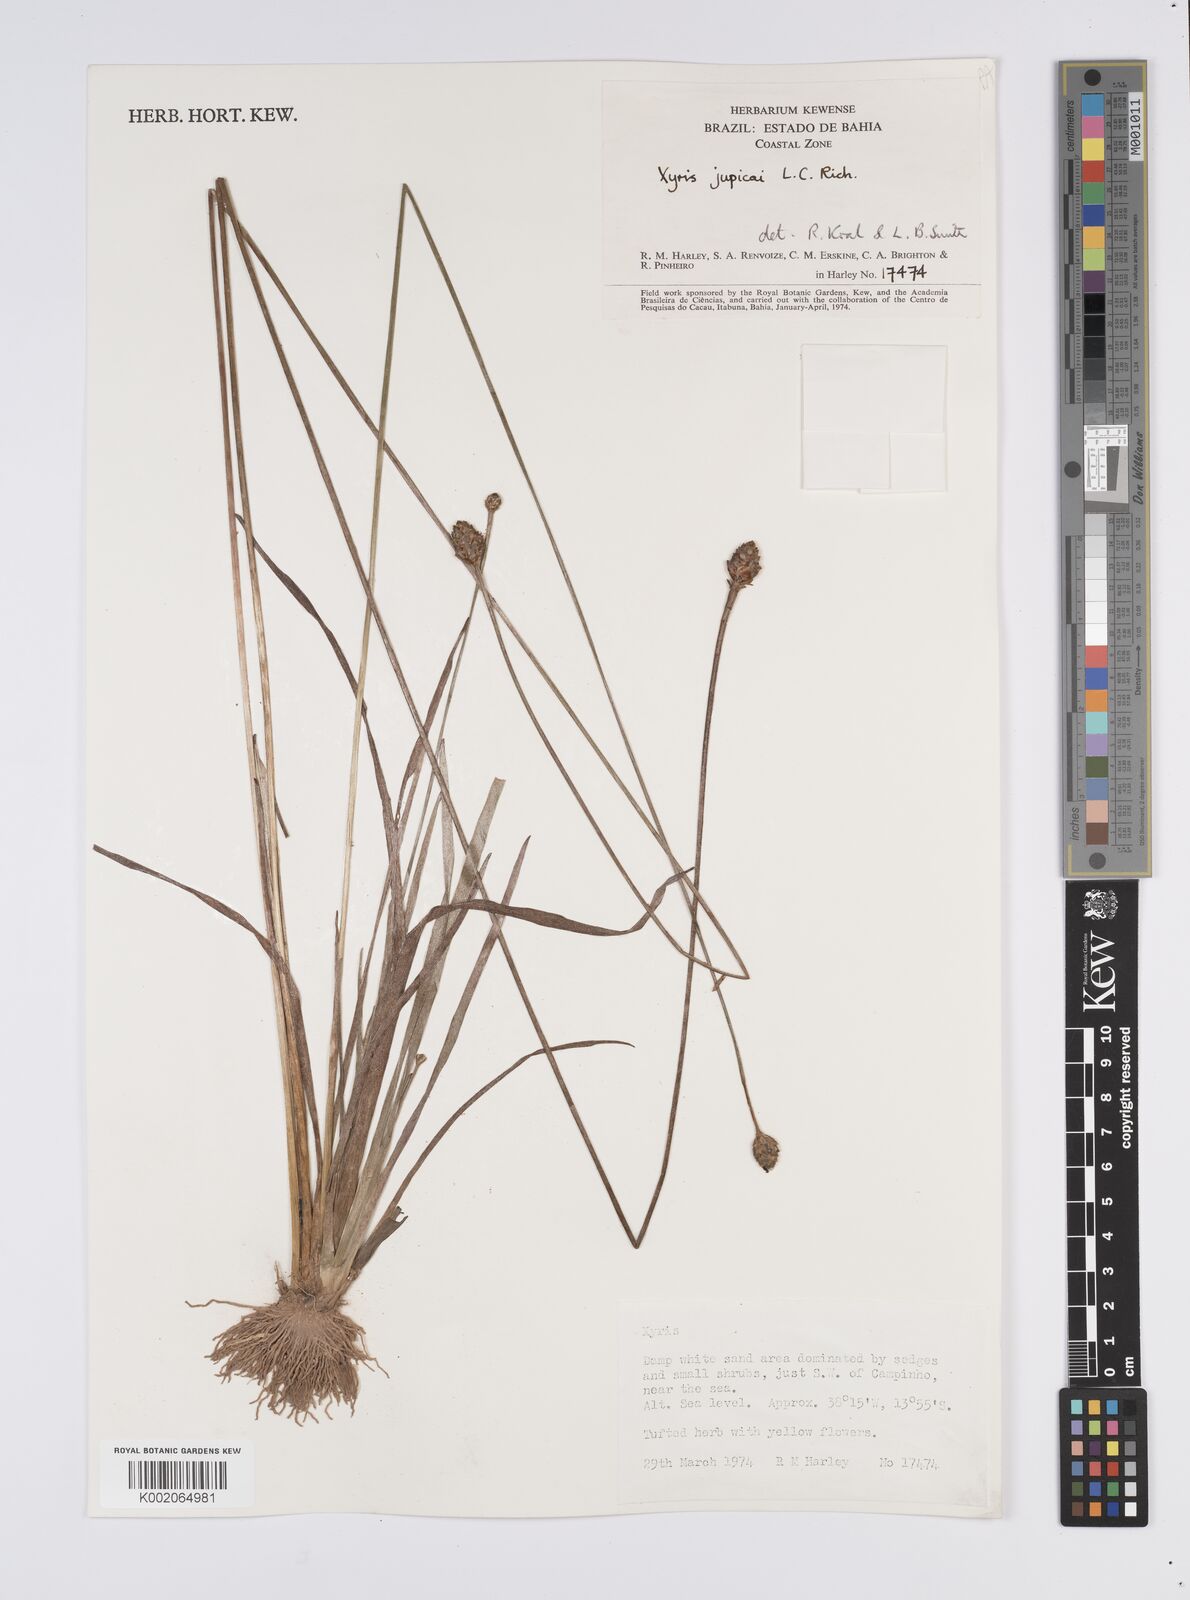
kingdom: Plantae
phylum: Tracheophyta
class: Liliopsida
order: Poales
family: Xyridaceae
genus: Xyris
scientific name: Xyris jupicai
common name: Richard's yelloweyed grass
